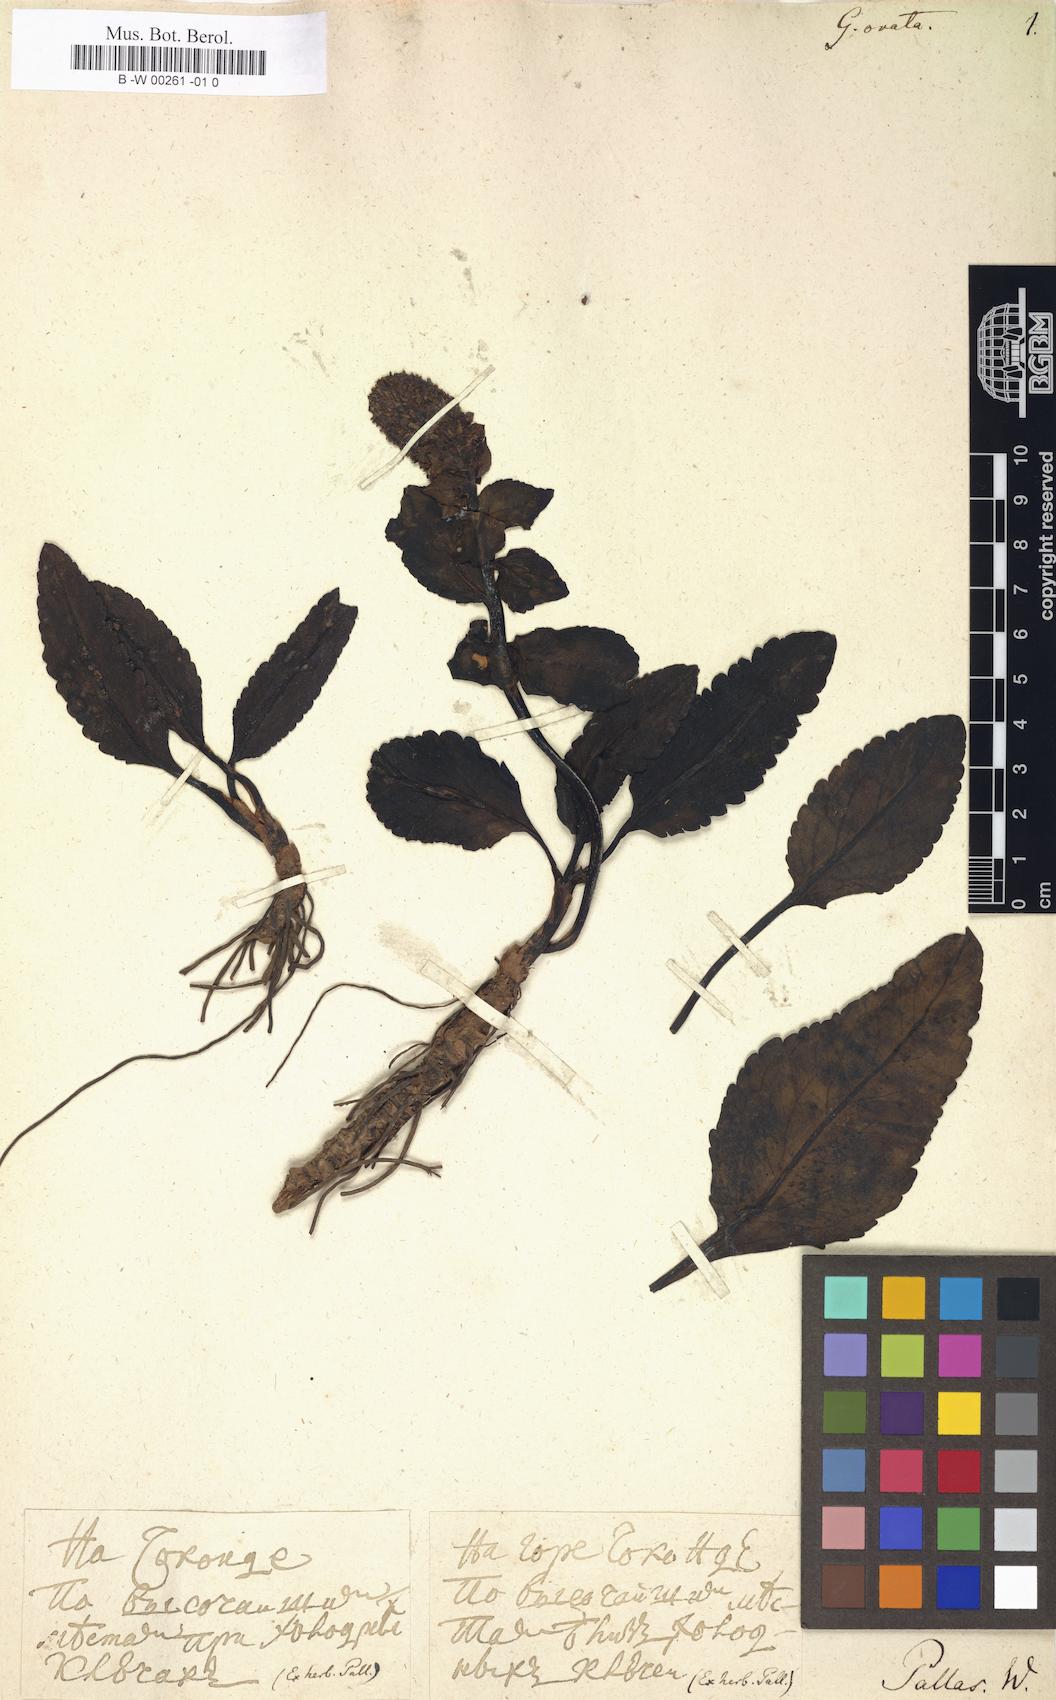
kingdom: Plantae
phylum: Tracheophyta
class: Magnoliopsida
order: Lamiales
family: Plantaginaceae
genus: Lagotis
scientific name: Lagotis glauca
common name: Glaucous weaselsnout
